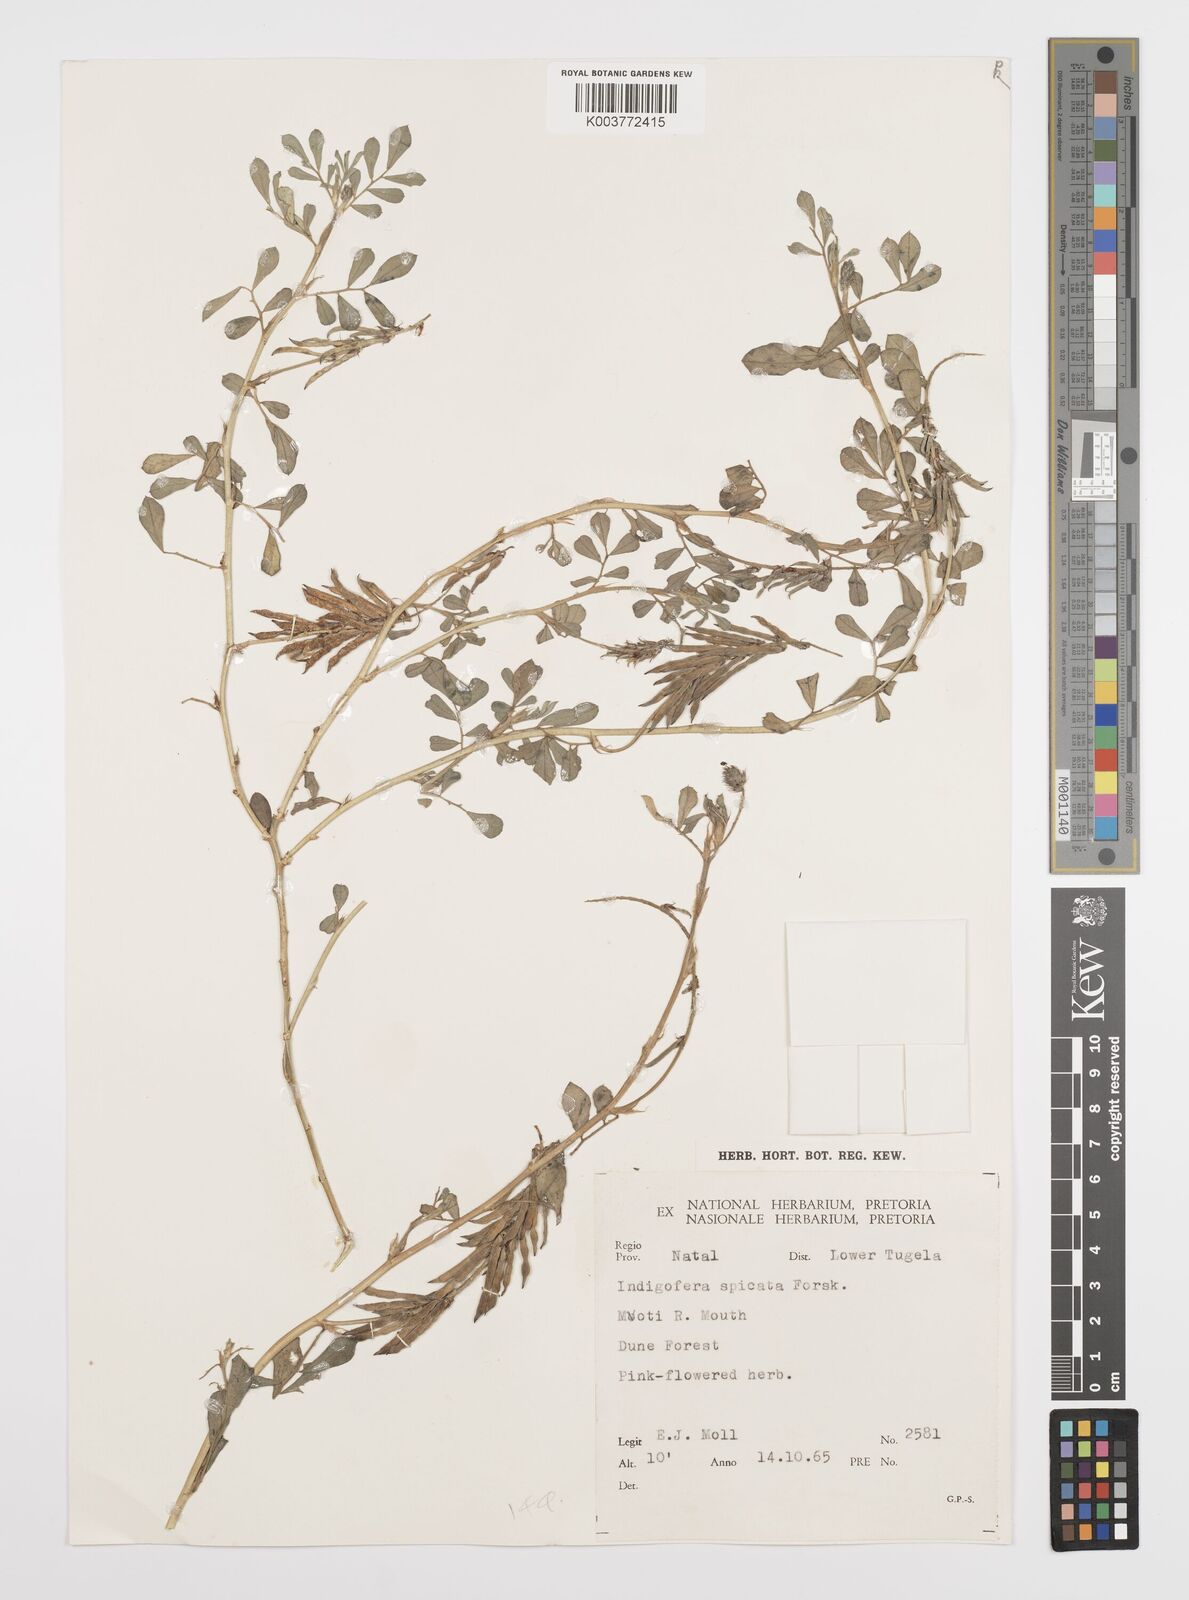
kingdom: Plantae
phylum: Tracheophyta
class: Magnoliopsida
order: Fabales
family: Fabaceae
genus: Indigofera
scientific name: Indigofera spicata
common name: Creeping indigo
